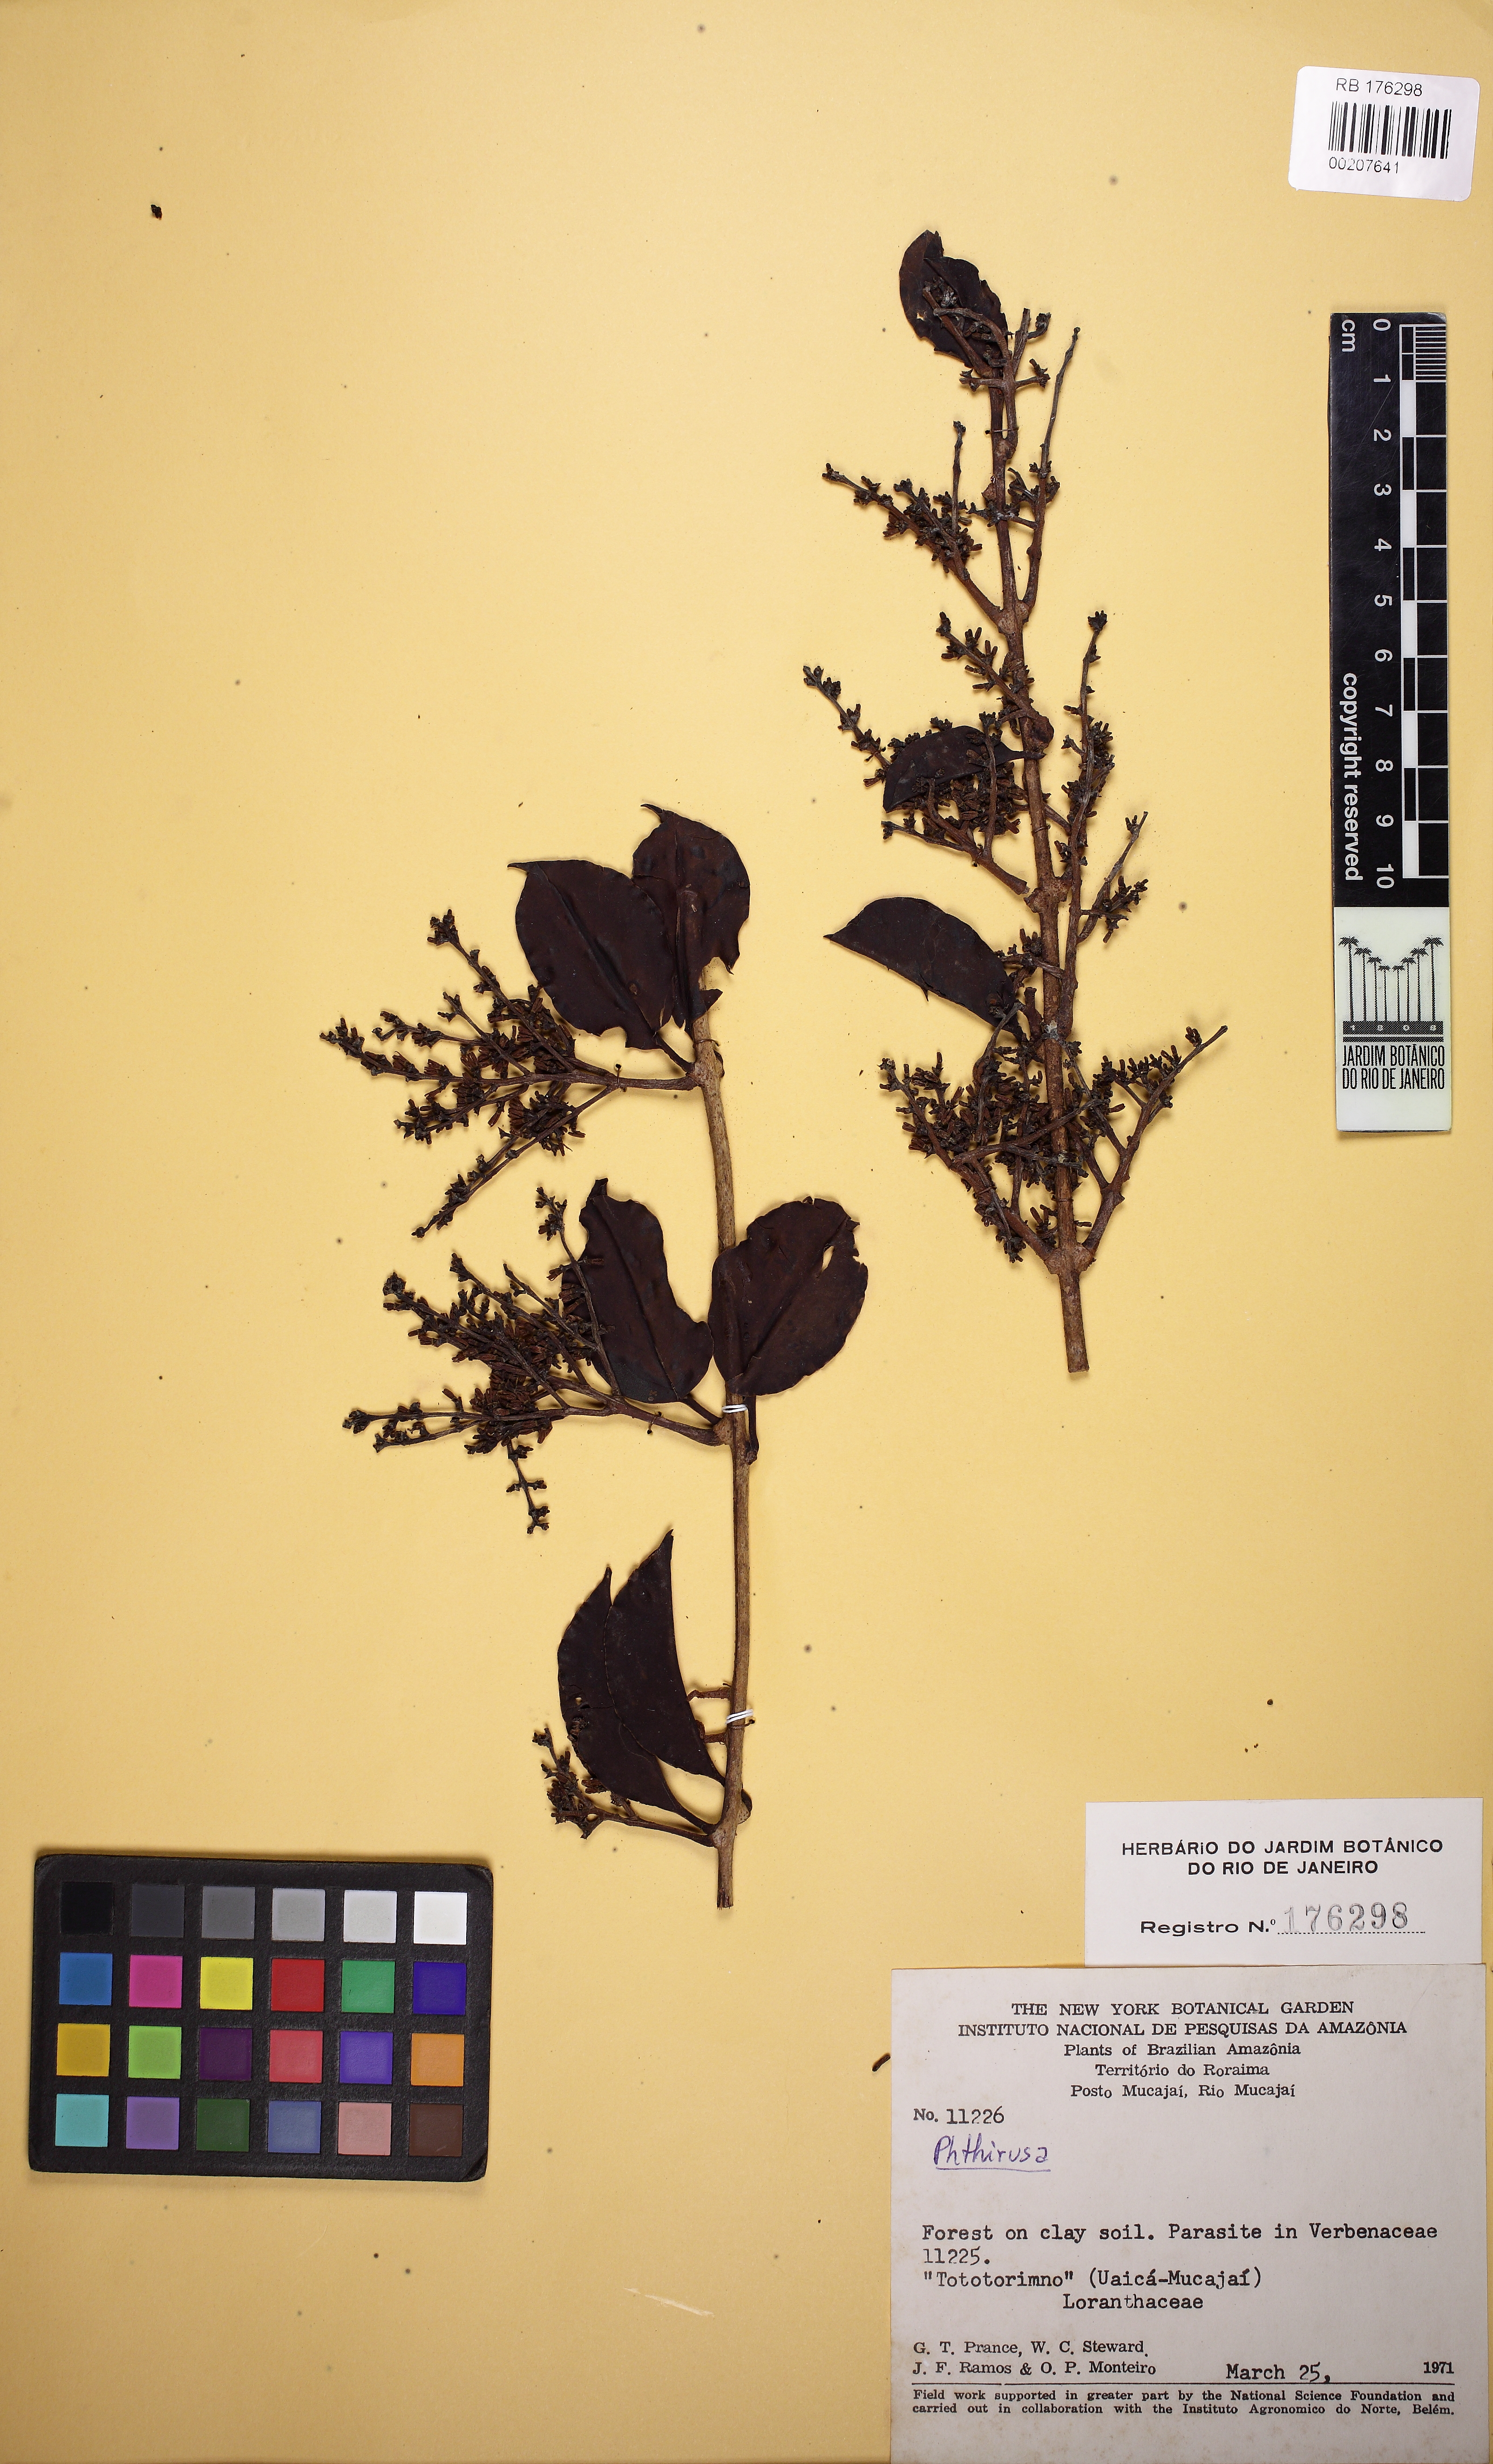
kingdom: Plantae
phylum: Tracheophyta
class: Magnoliopsida
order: Santalales
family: Loranthaceae
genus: Passovia
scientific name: Passovia pedunculata
